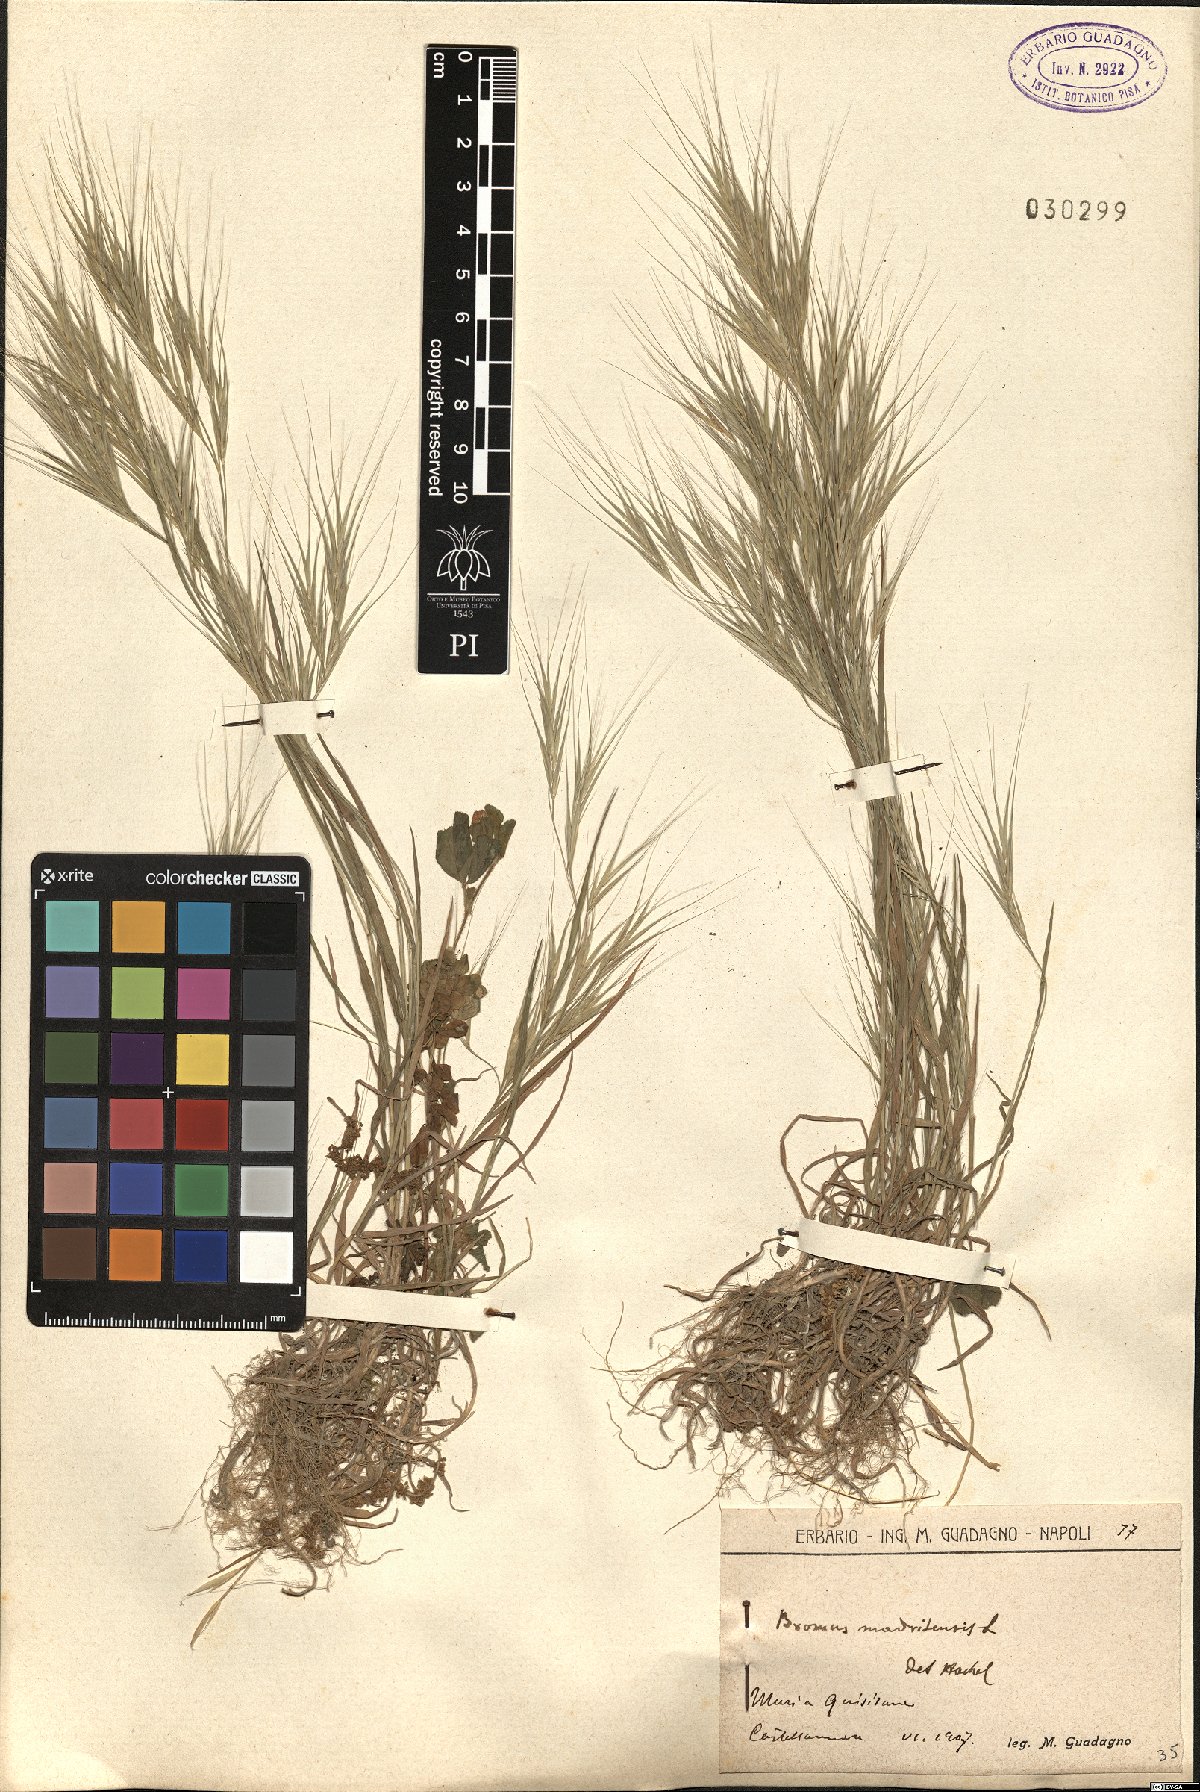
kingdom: Plantae
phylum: Tracheophyta
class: Liliopsida
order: Poales
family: Poaceae
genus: Bromus
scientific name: Bromus madritensis
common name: Compact brome
